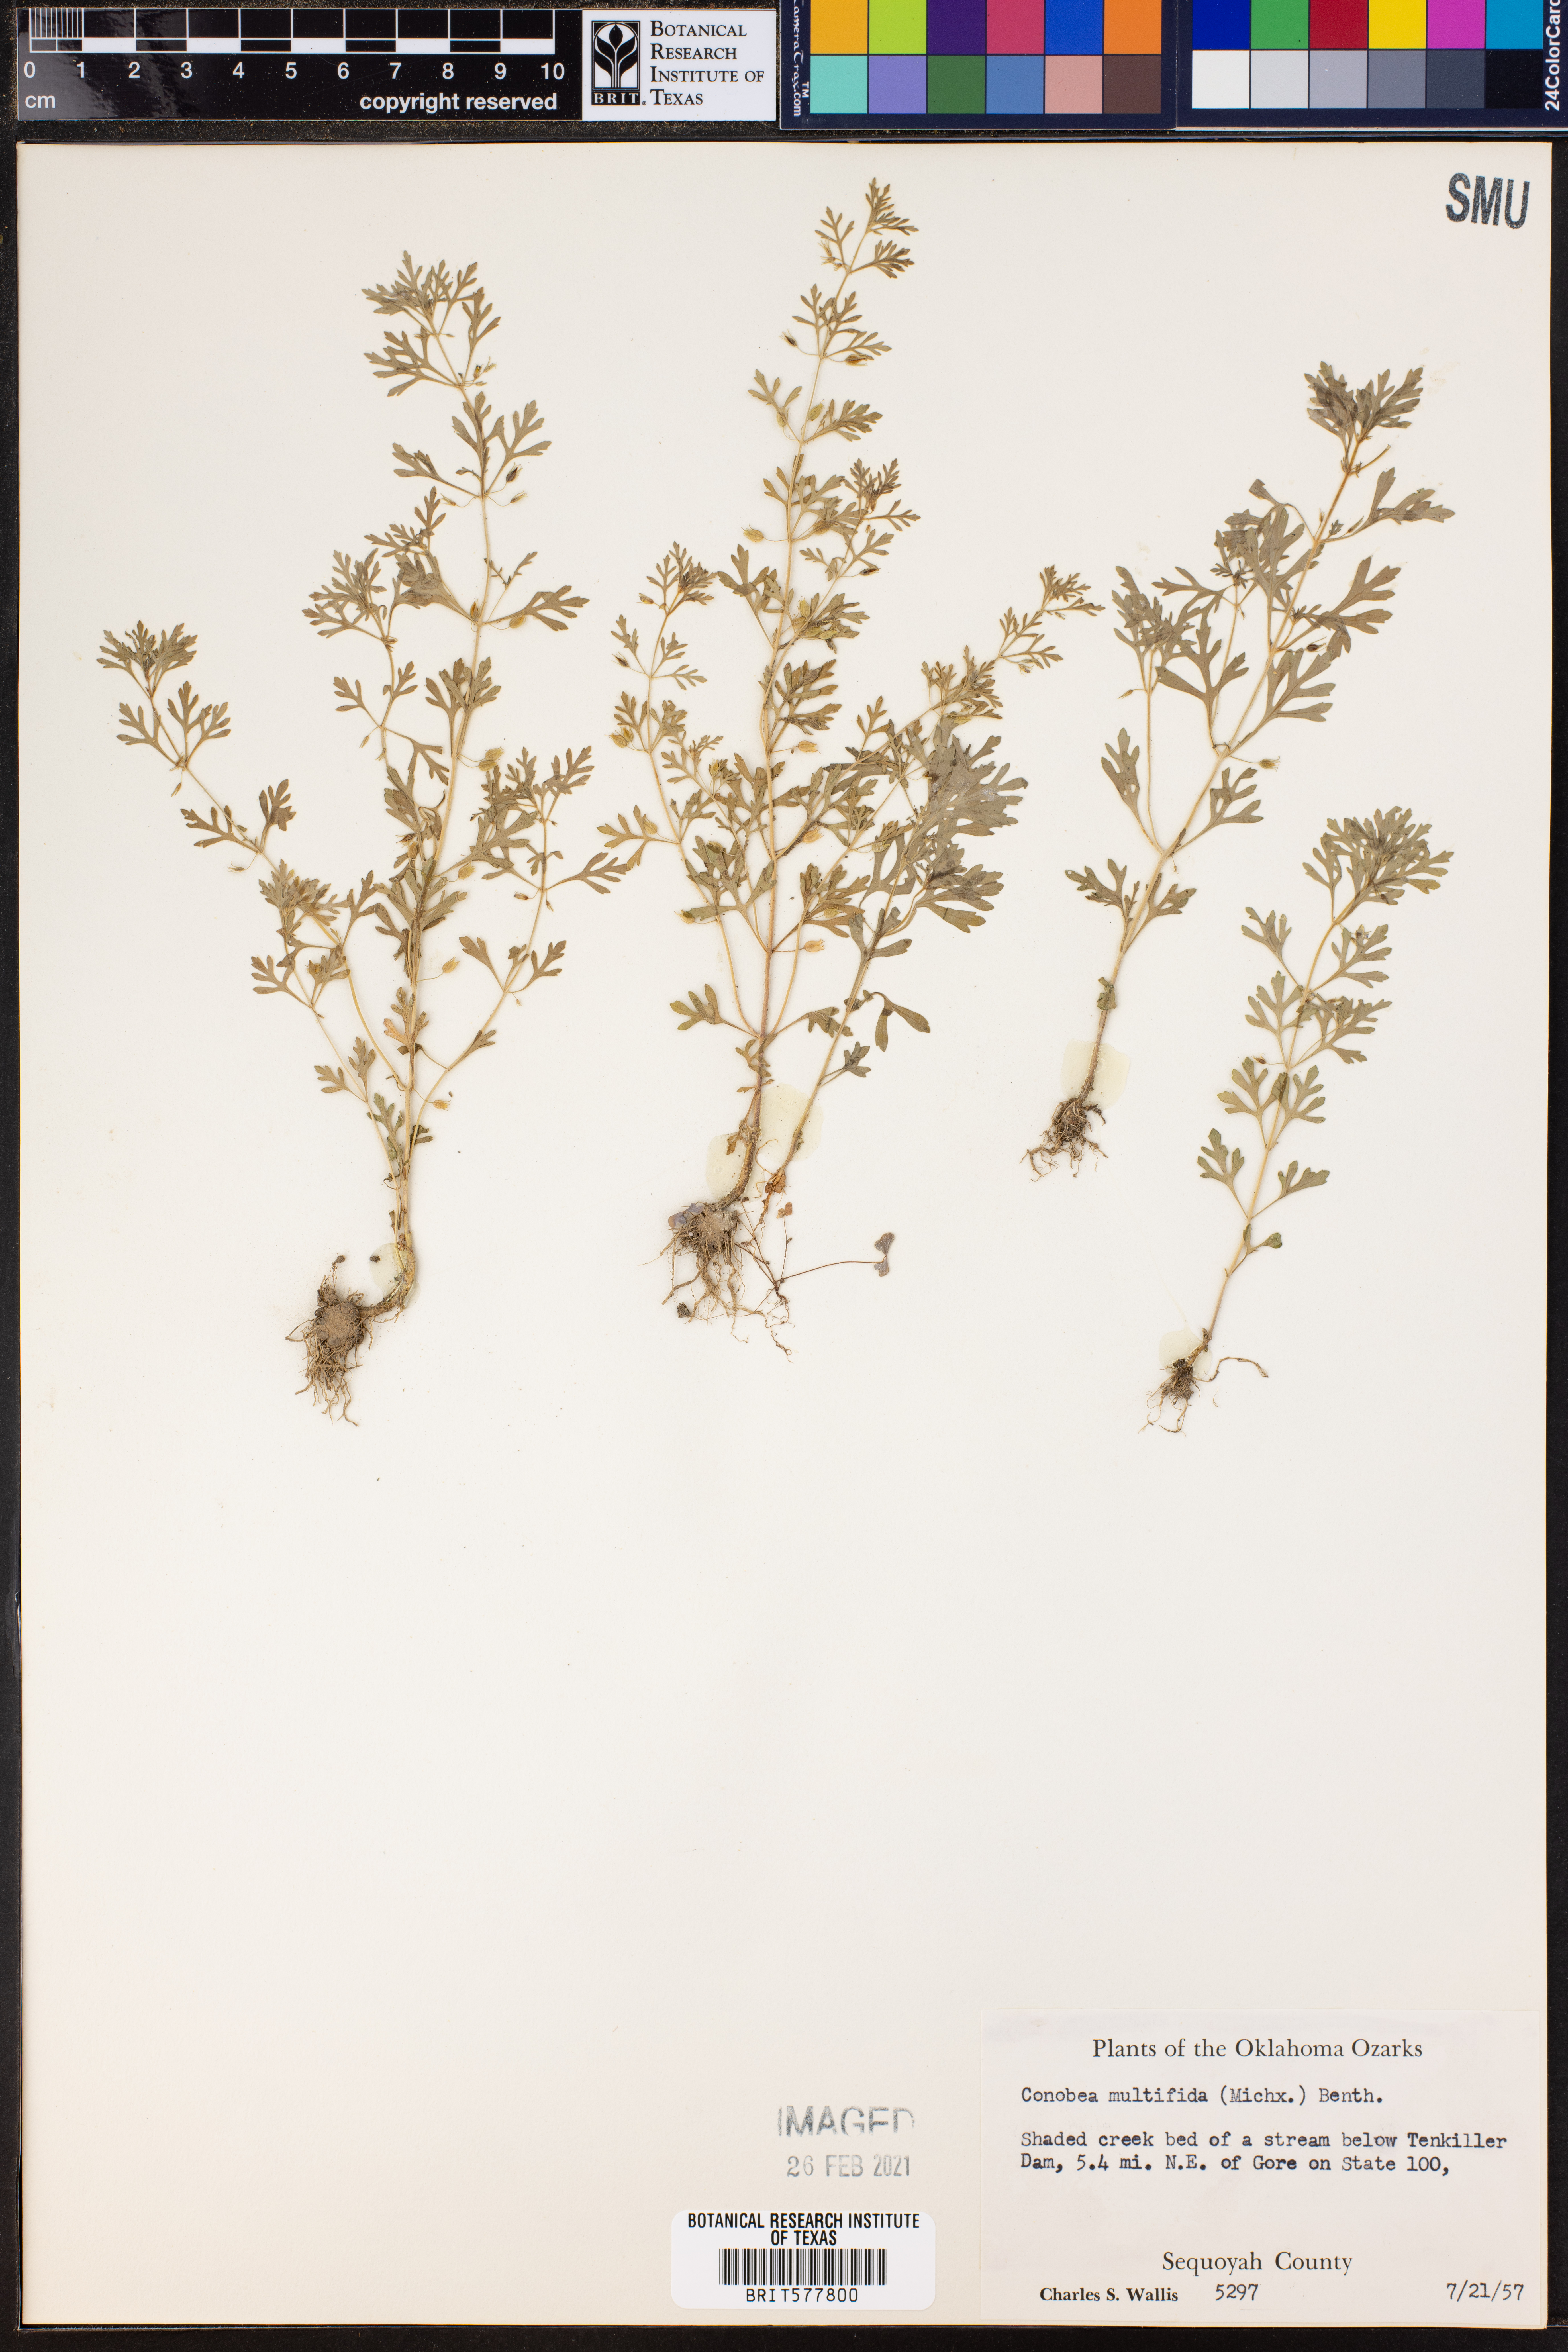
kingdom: Plantae
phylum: Tracheophyta
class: Magnoliopsida
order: Lamiales
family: Plantaginaceae
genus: Leucospora
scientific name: Leucospora multifida
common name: Narrow-leaf paleseed
